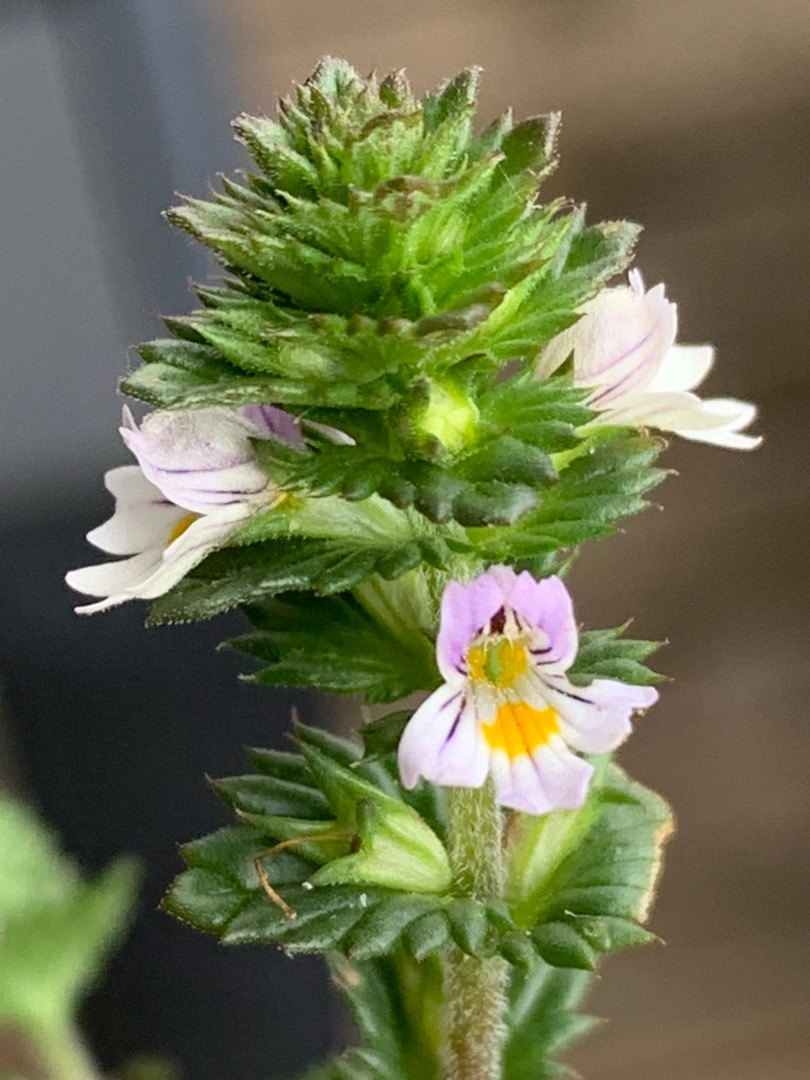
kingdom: Plantae
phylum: Tracheophyta
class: Magnoliopsida
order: Lamiales
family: Orobanchaceae
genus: Euphrasia
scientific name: Euphrasia nemorosa
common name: Kort øjentrøst
